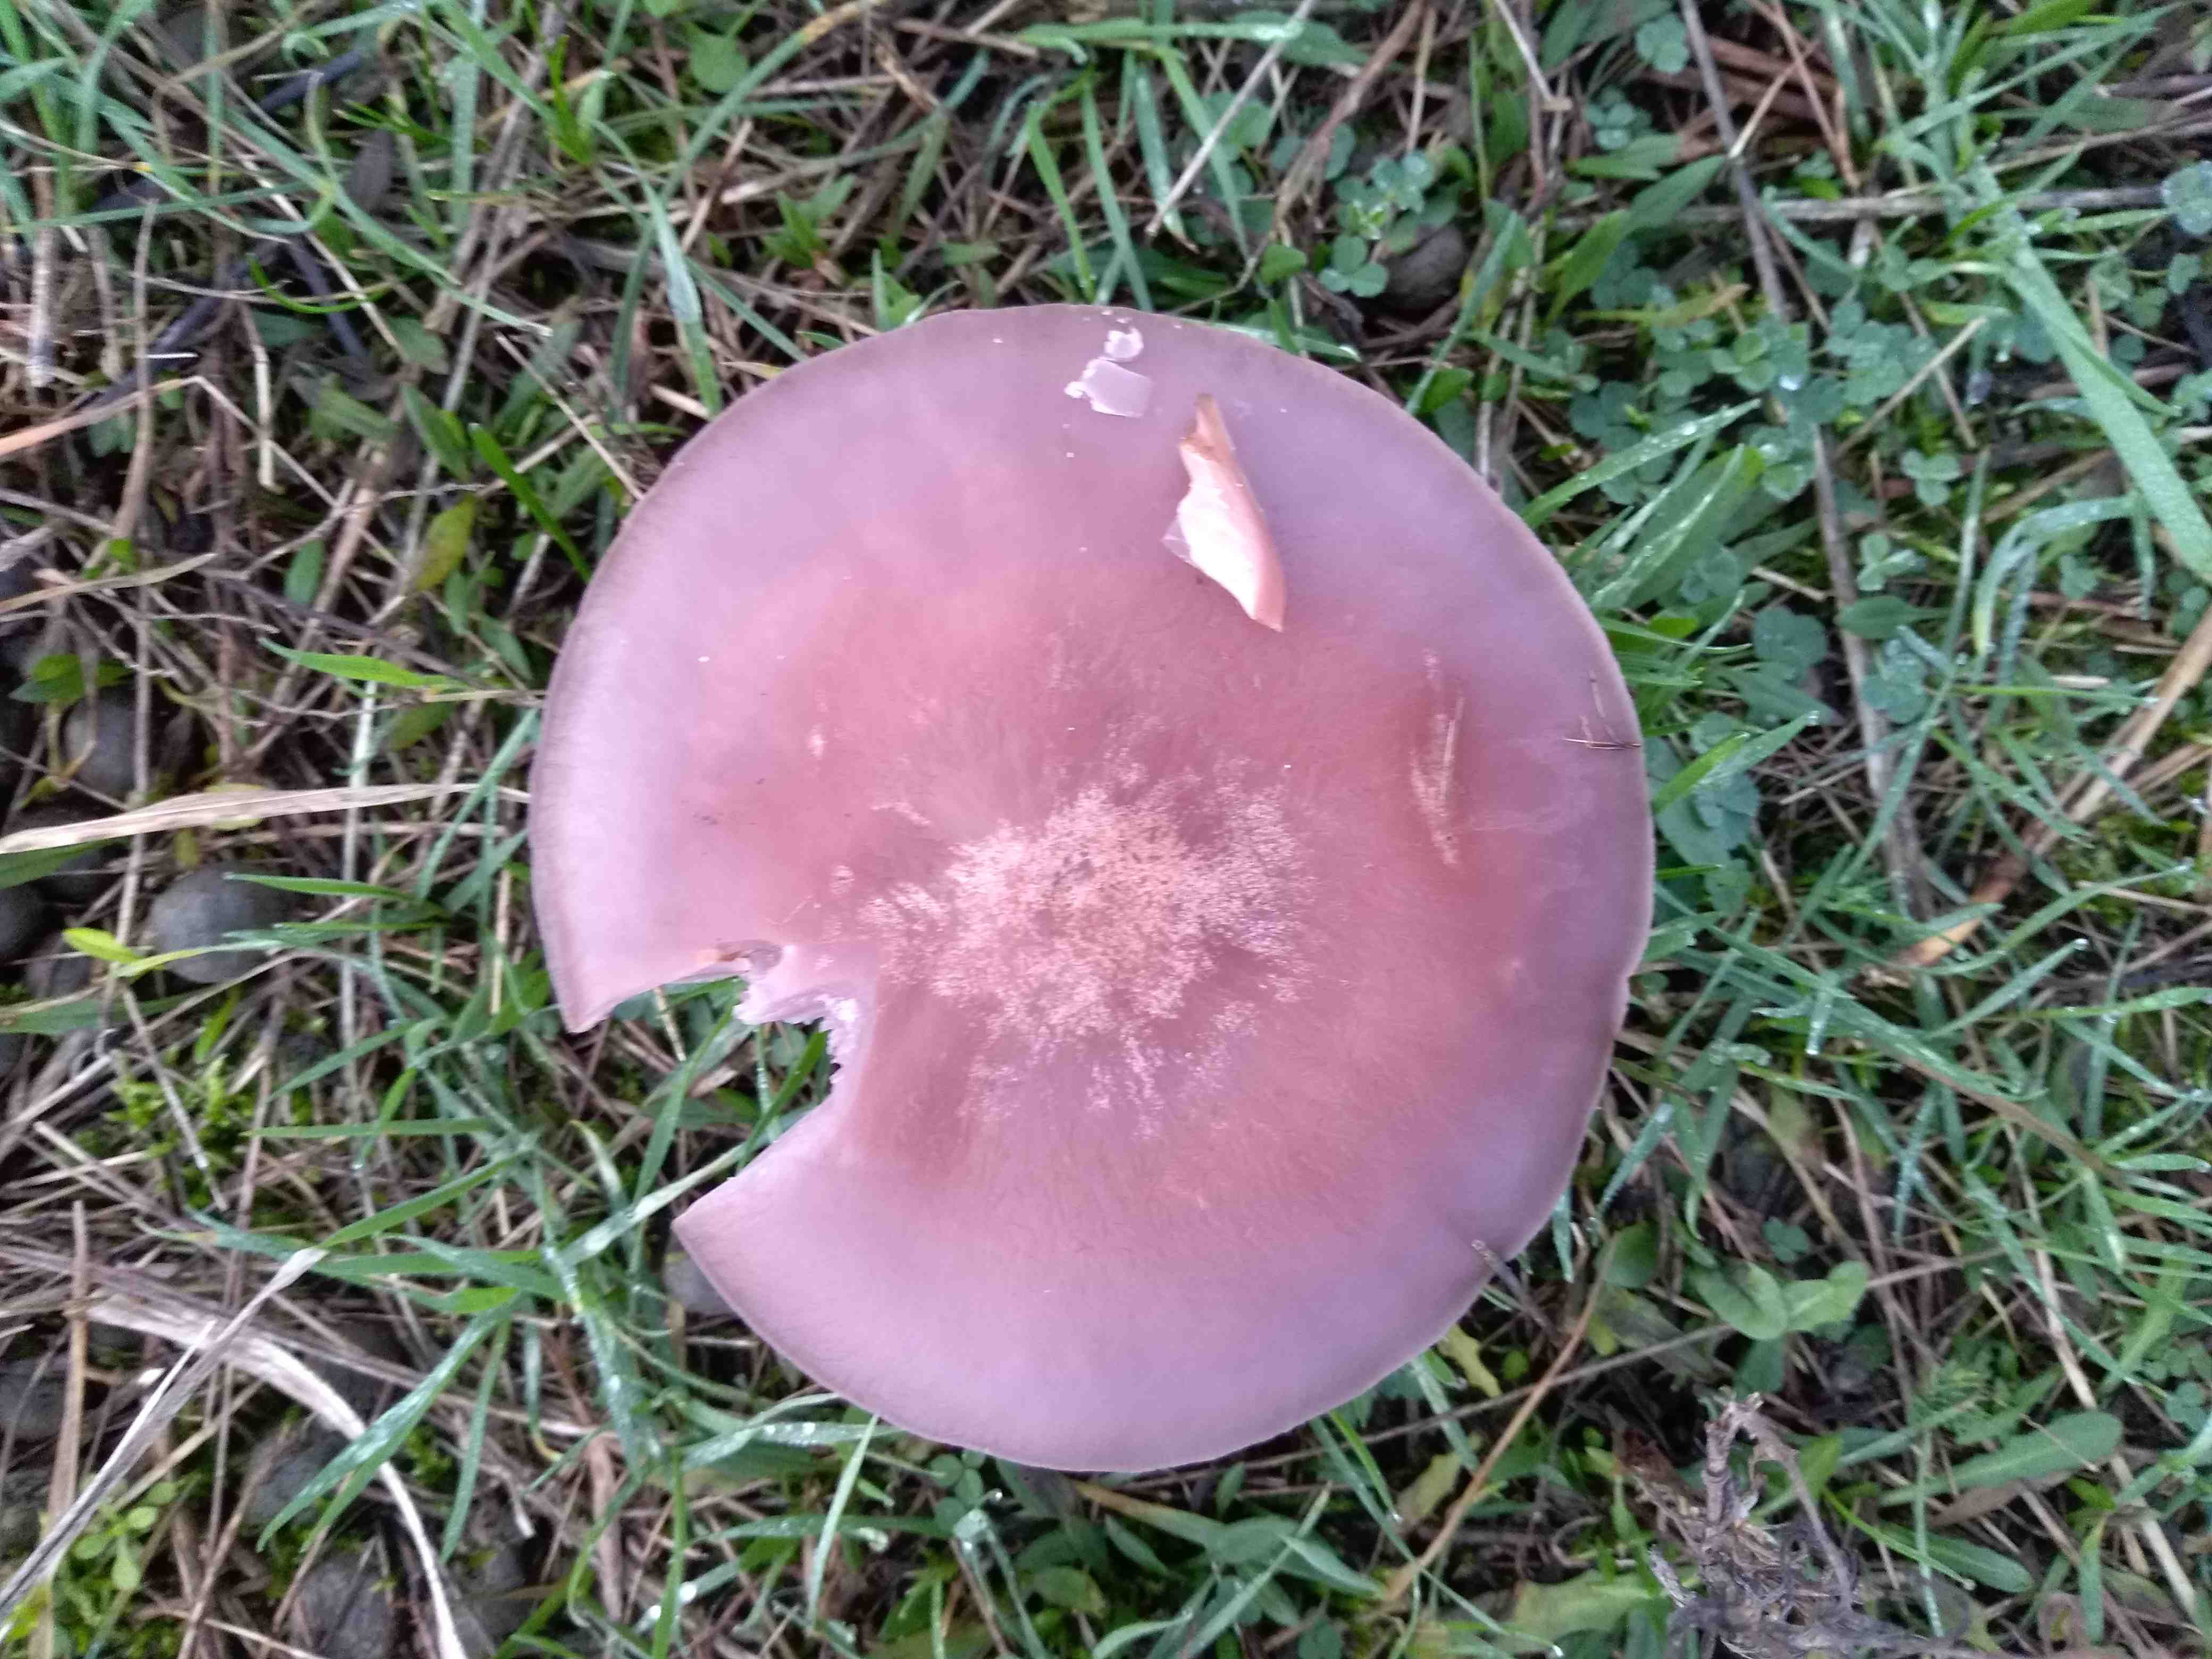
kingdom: Fungi
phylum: Basidiomycota
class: Agaricomycetes
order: Agaricales
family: Tricholomataceae
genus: Lepista
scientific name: Lepista lilacea
